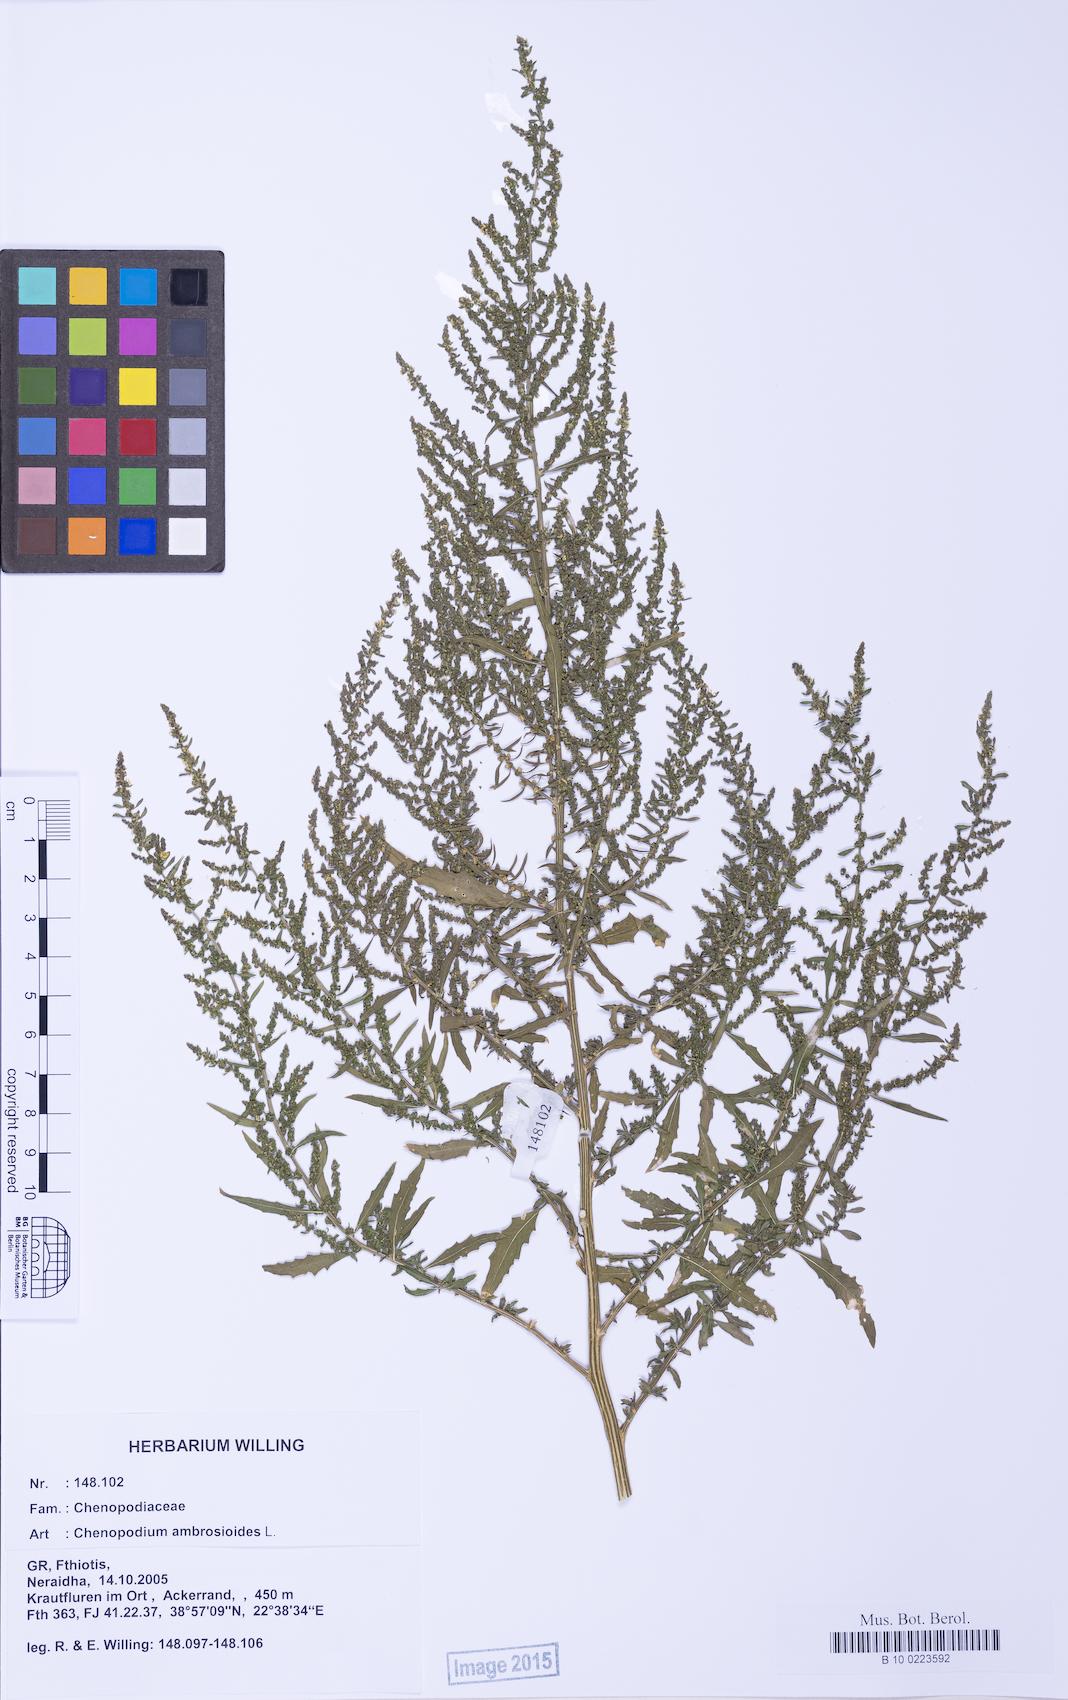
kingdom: Plantae
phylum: Tracheophyta
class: Magnoliopsida
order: Caryophyllales
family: Amaranthaceae
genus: Dysphania
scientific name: Dysphania ambrosioides
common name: Wormseed
